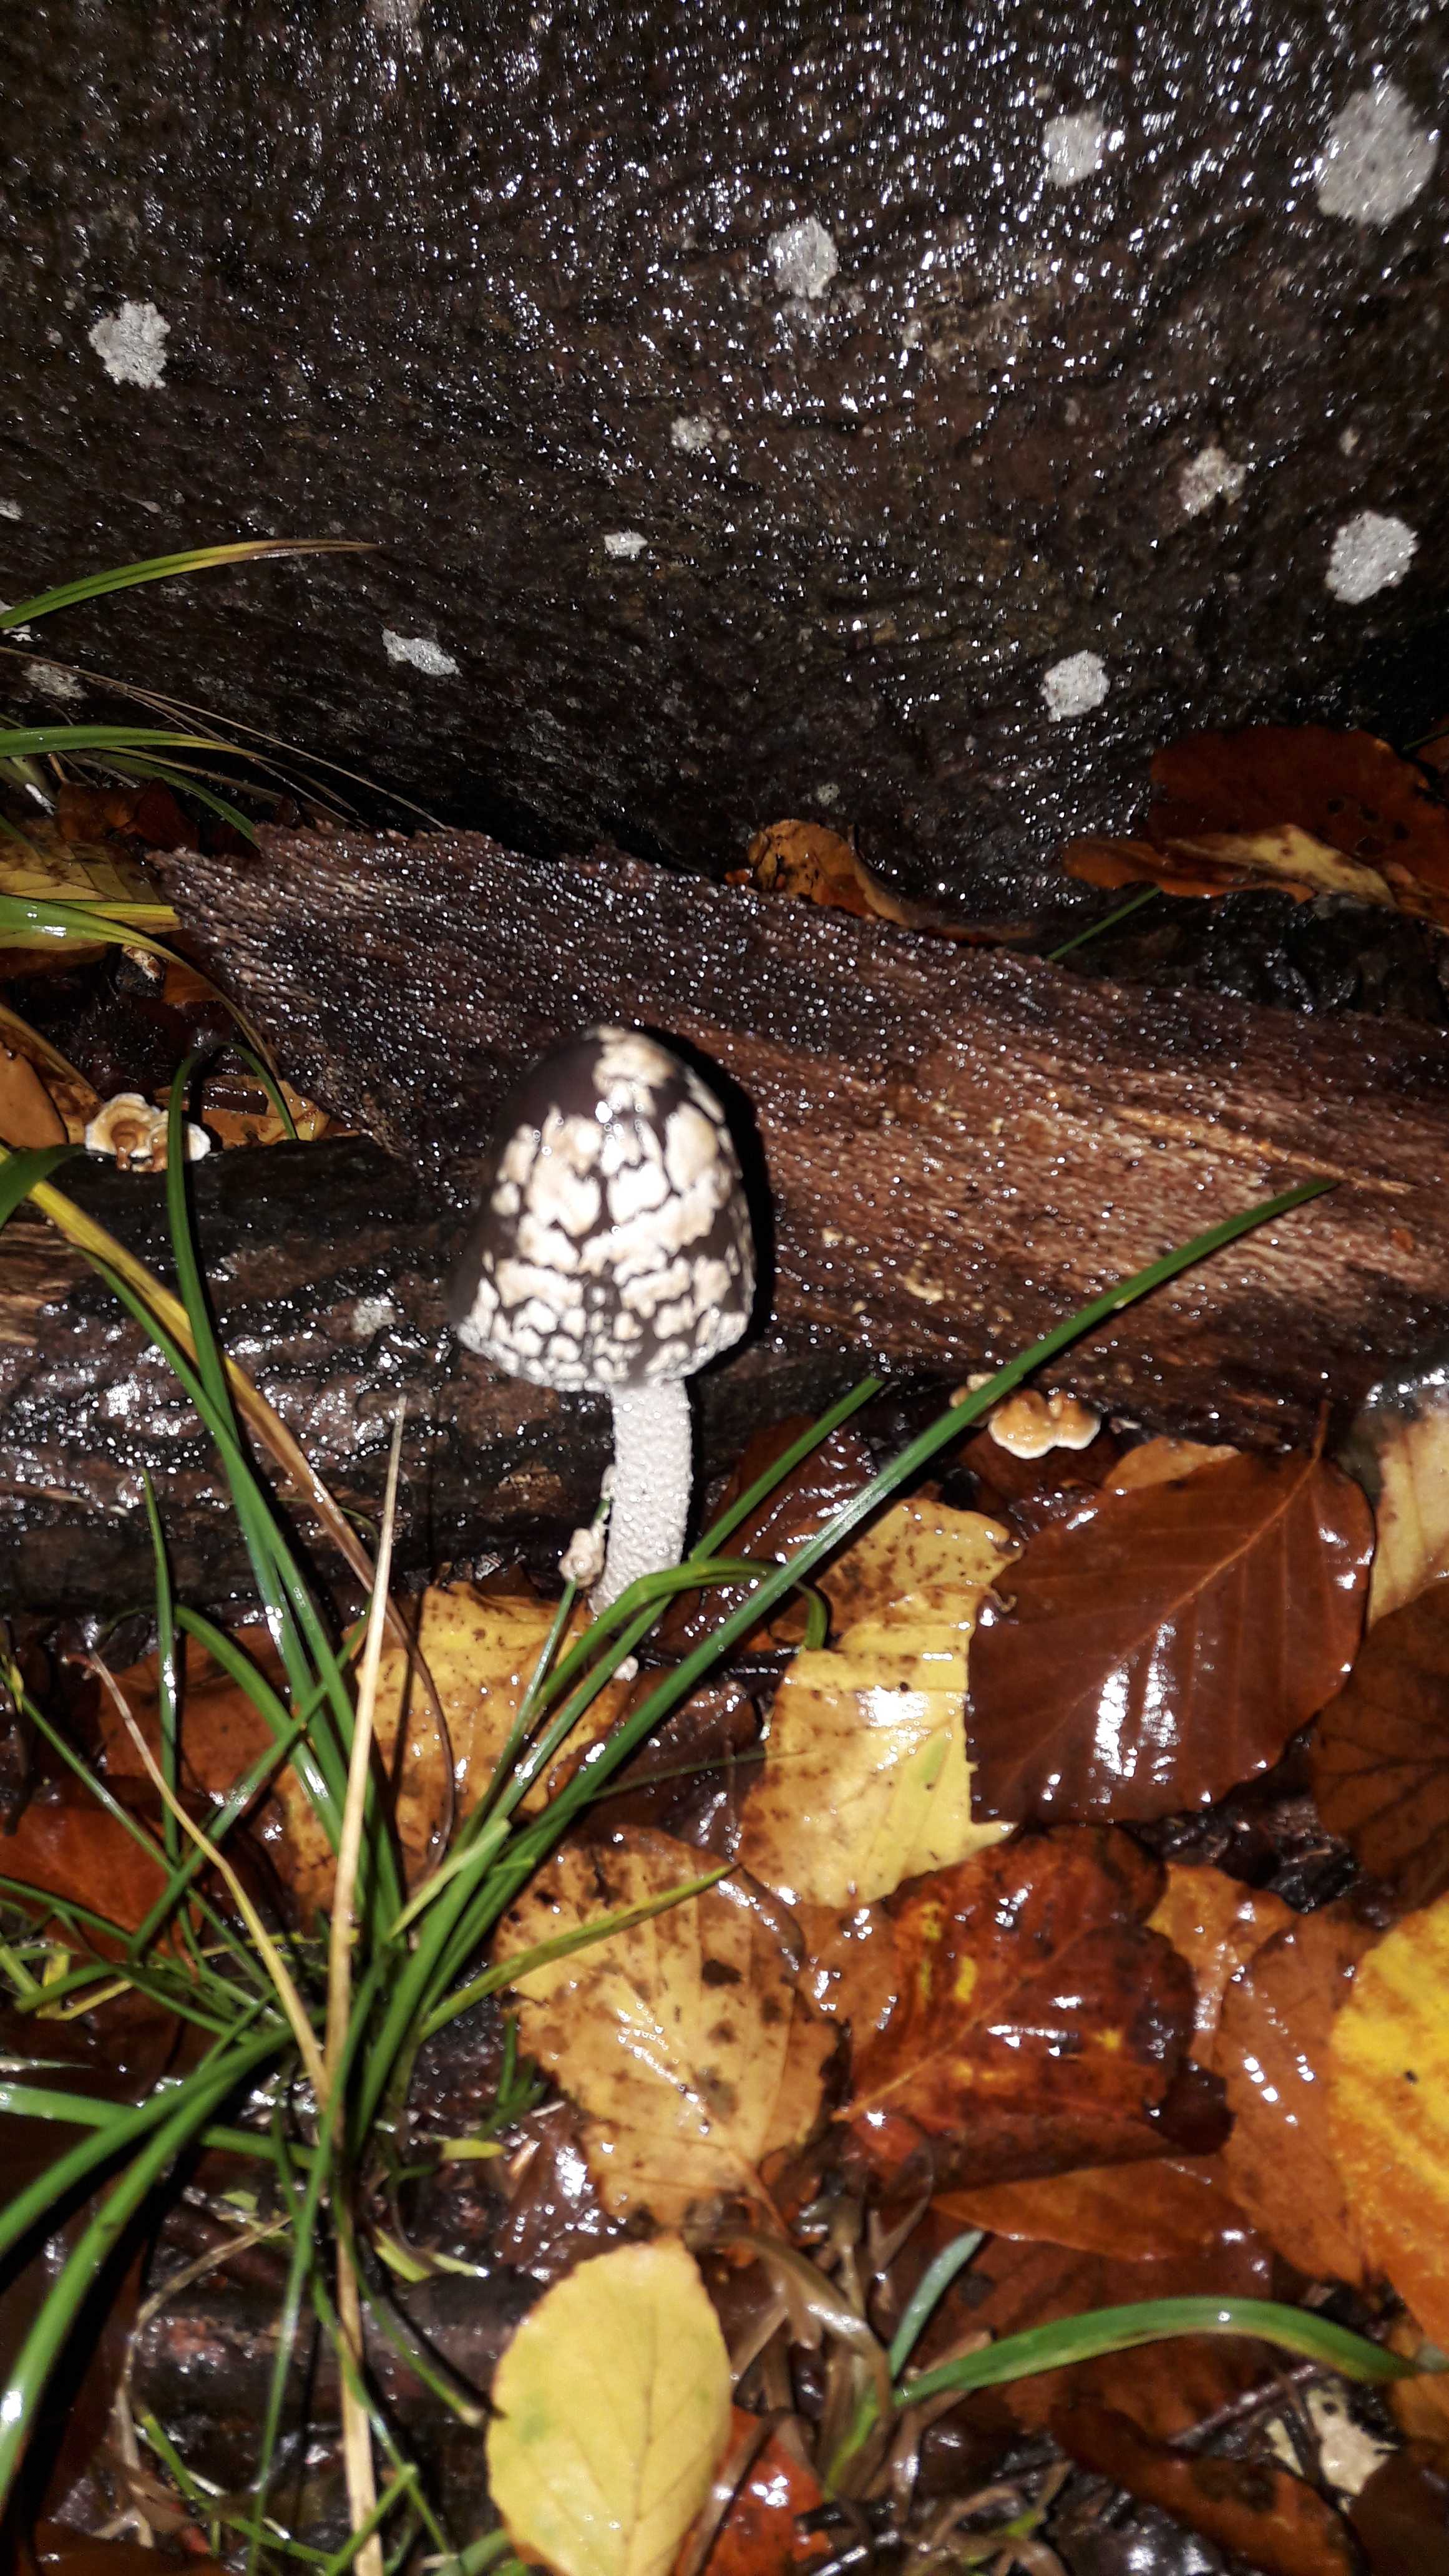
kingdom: Fungi
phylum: Basidiomycota
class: Agaricomycetes
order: Agaricales
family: Psathyrellaceae
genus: Coprinopsis
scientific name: Coprinopsis picacea
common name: skade-blækhat
